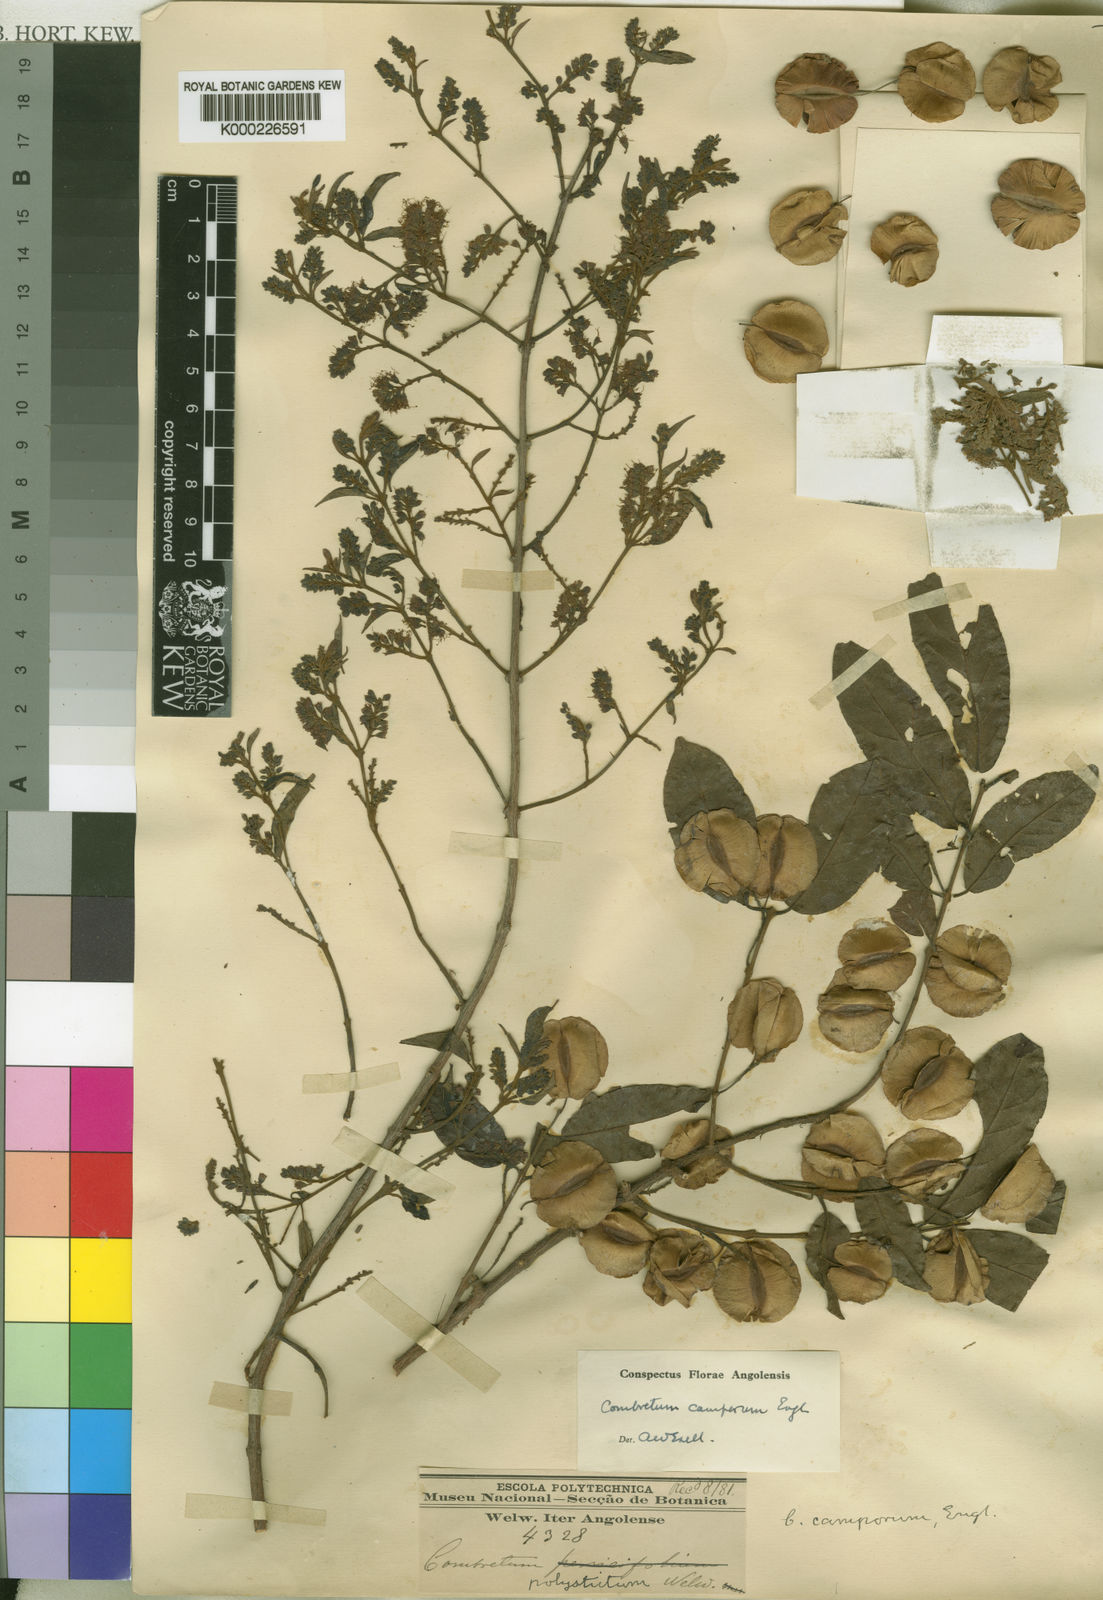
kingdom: Plantae
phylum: Tracheophyta
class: Magnoliopsida
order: Myrtales
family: Combretaceae
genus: Combretum
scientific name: Combretum camporum
